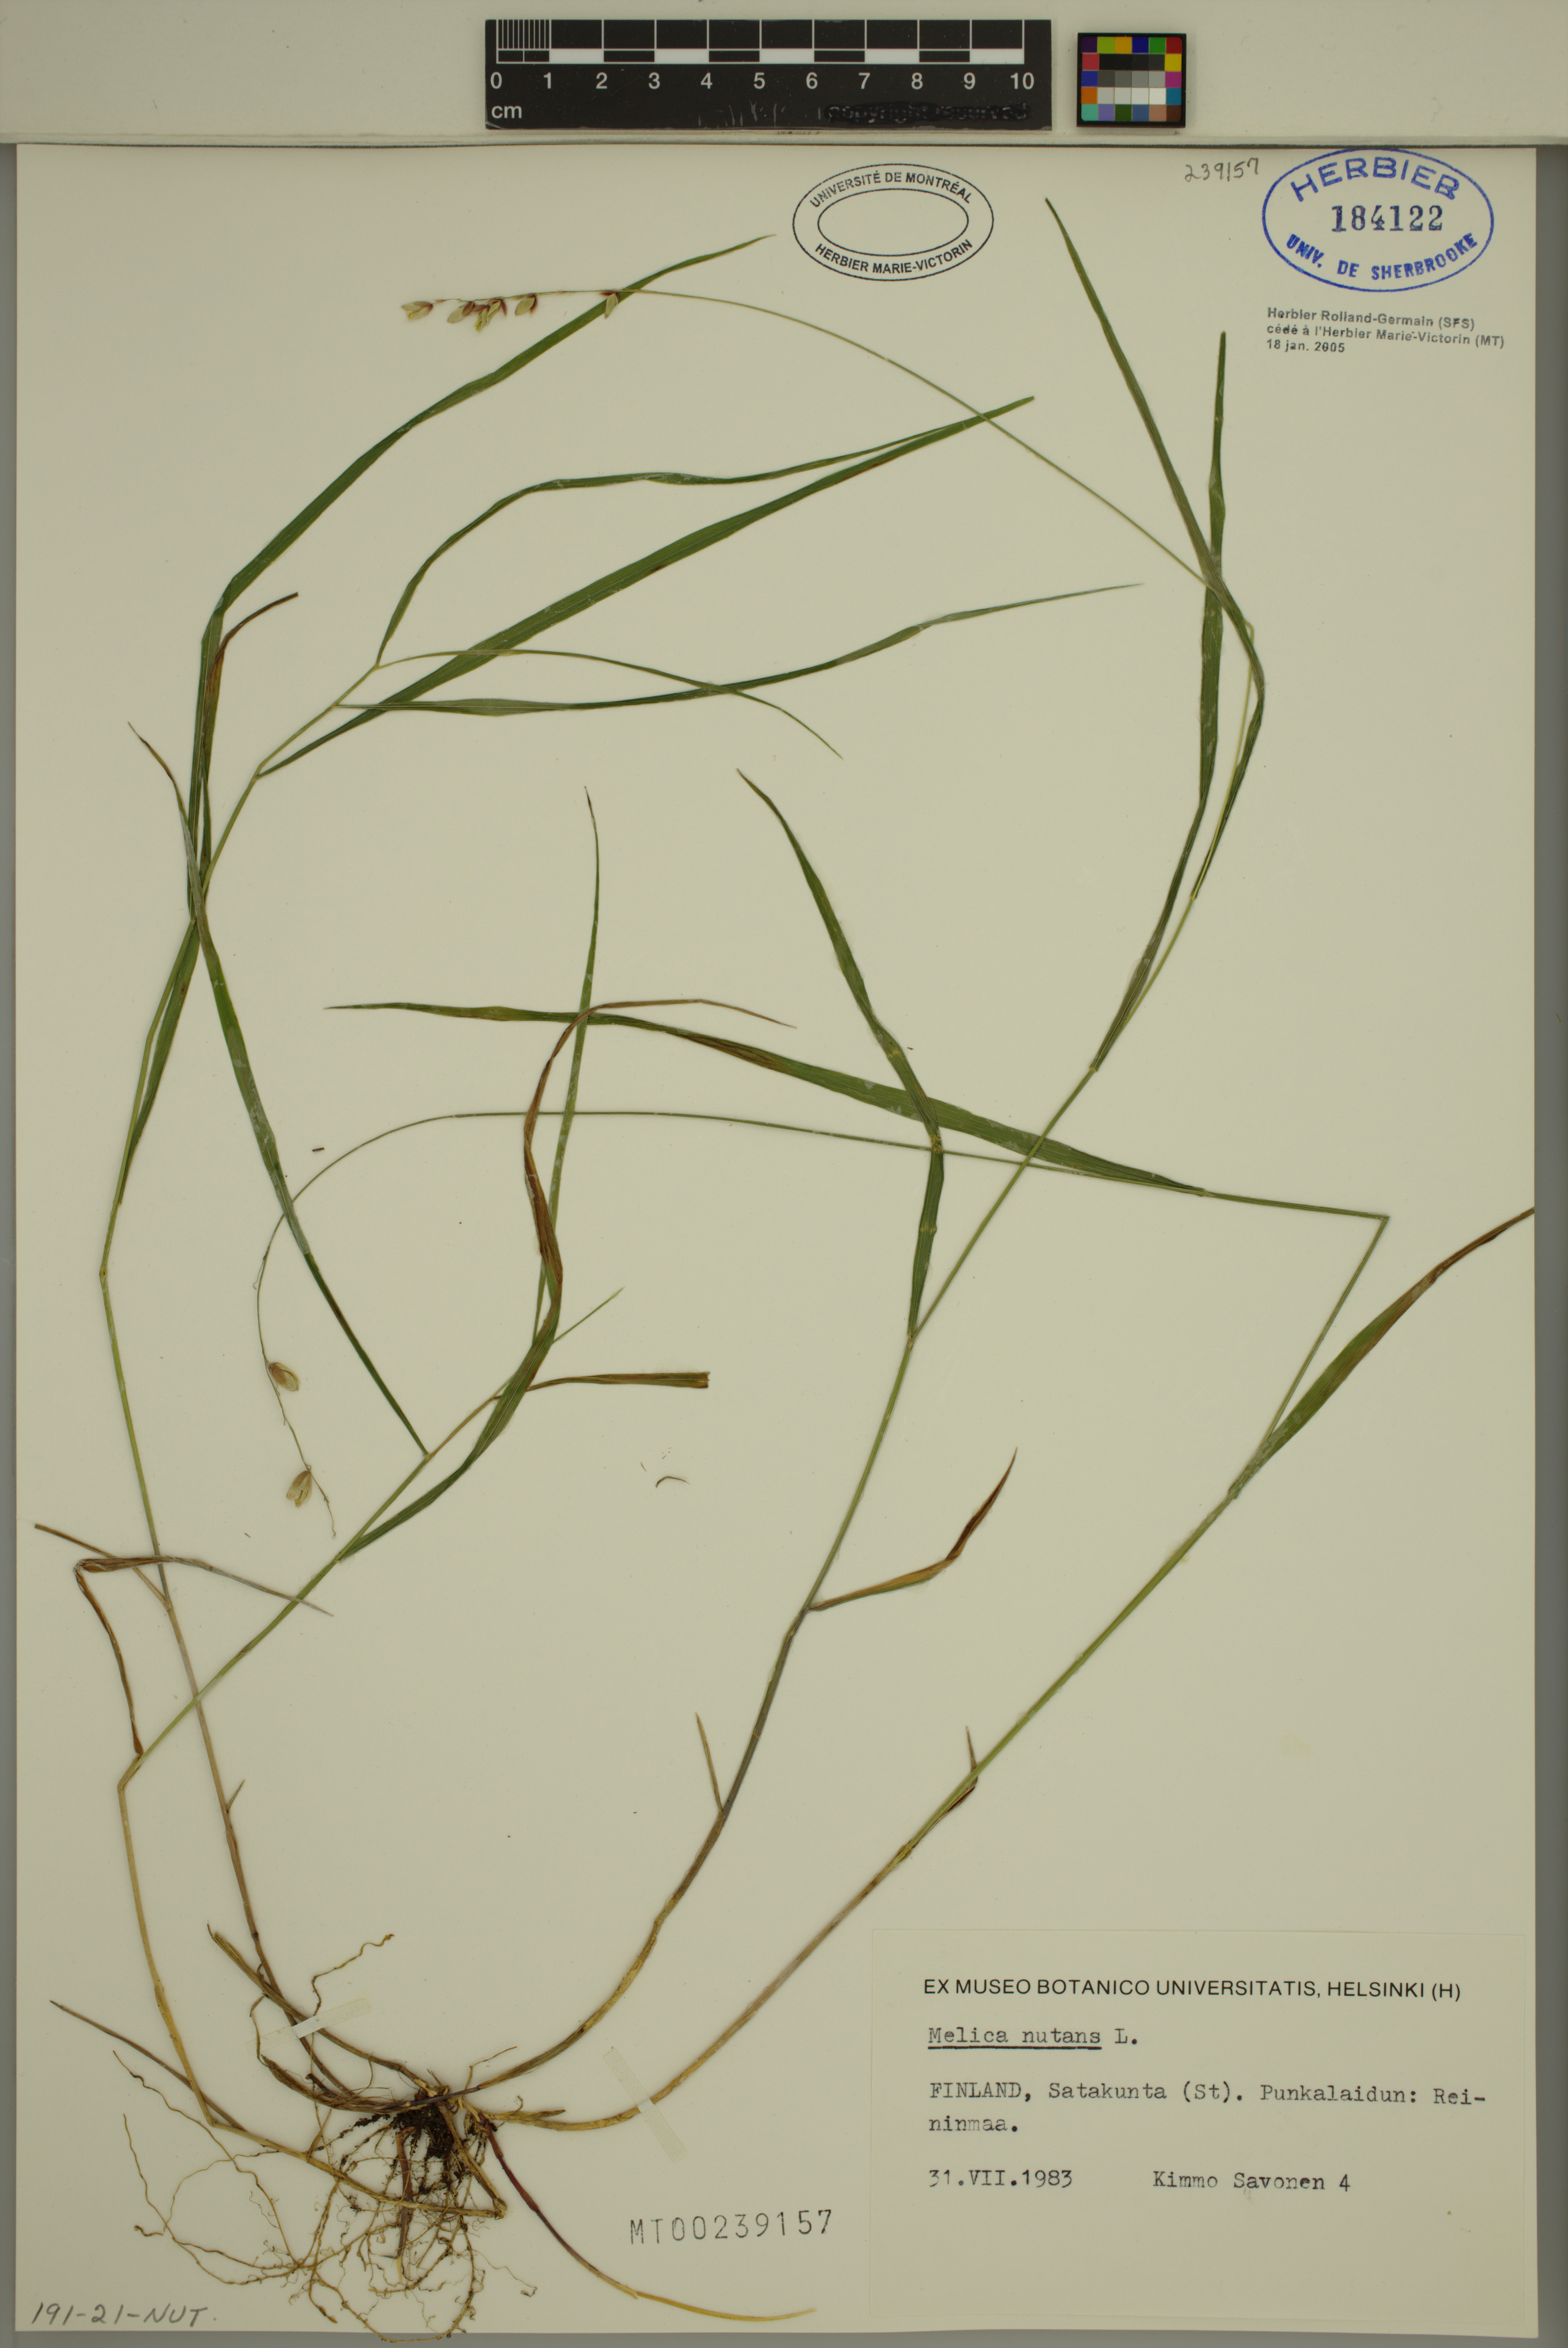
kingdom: Plantae
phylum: Tracheophyta
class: Liliopsida
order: Poales
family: Poaceae
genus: Melica
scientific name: Melica nutans
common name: Mountain melick
